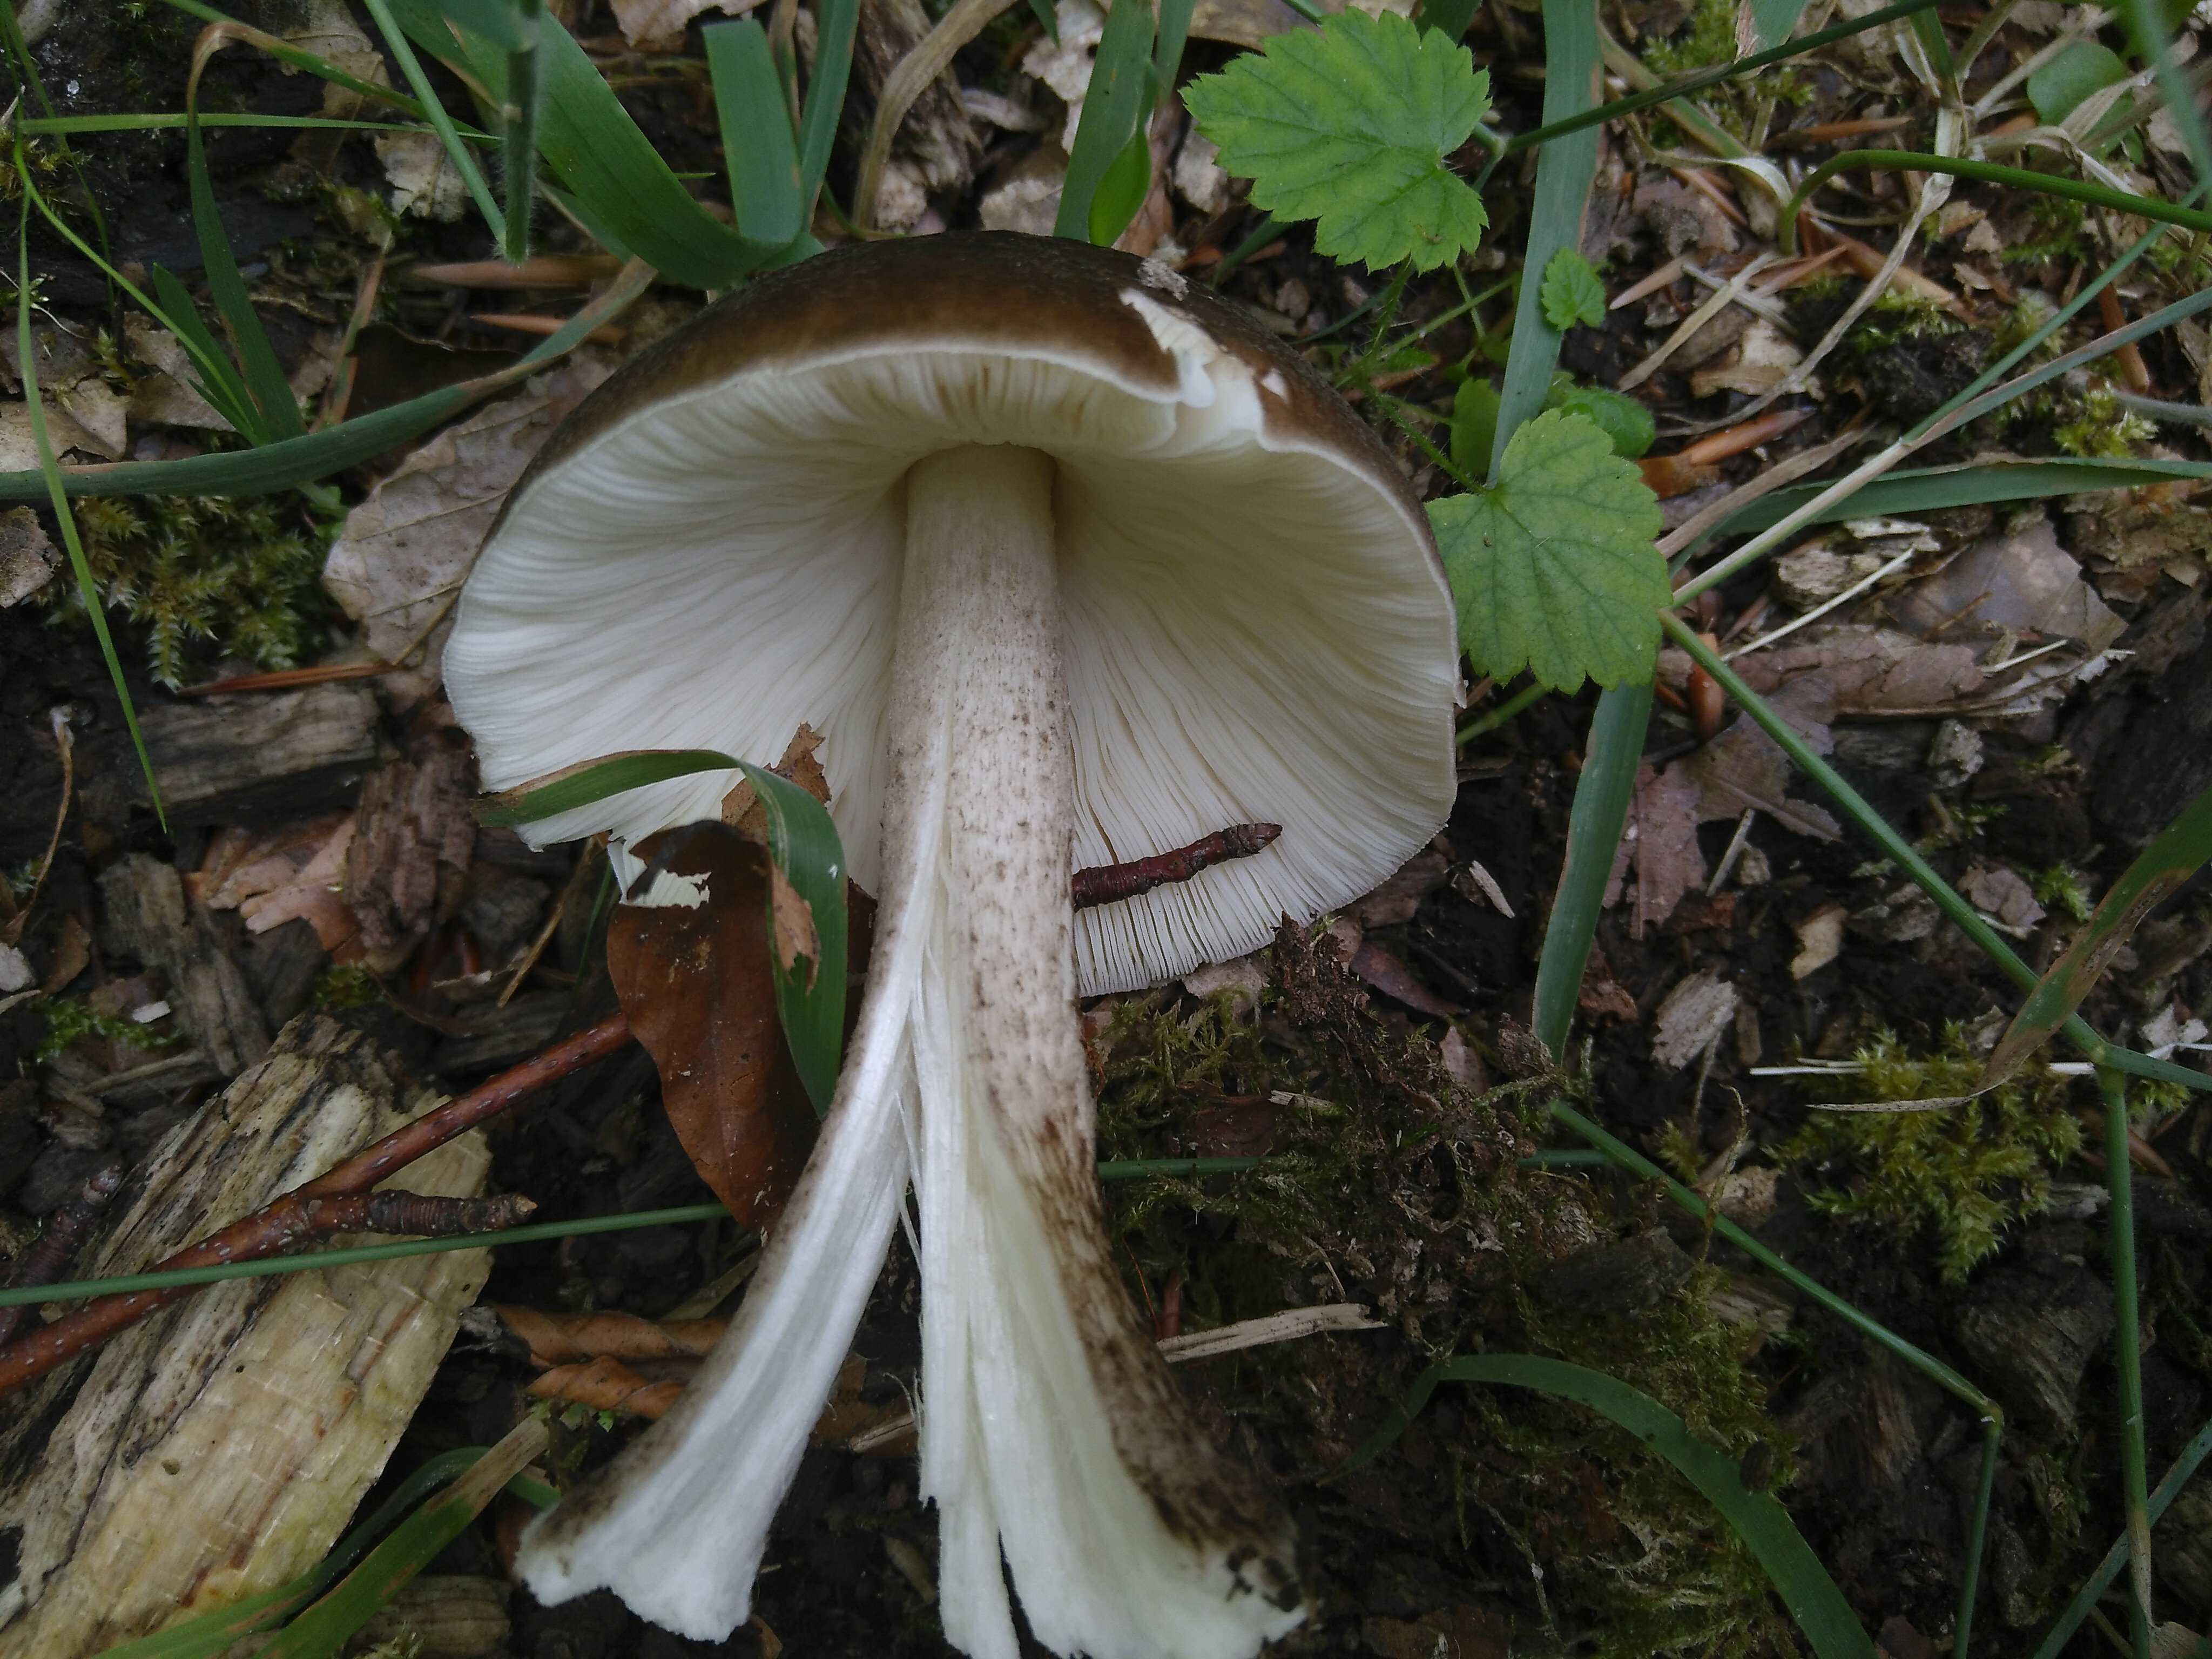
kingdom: Fungi
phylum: Basidiomycota
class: Agaricomycetes
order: Agaricales
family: Pluteaceae
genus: Pluteus
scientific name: Pluteus cervinus
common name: sodfarvet skærmhat
